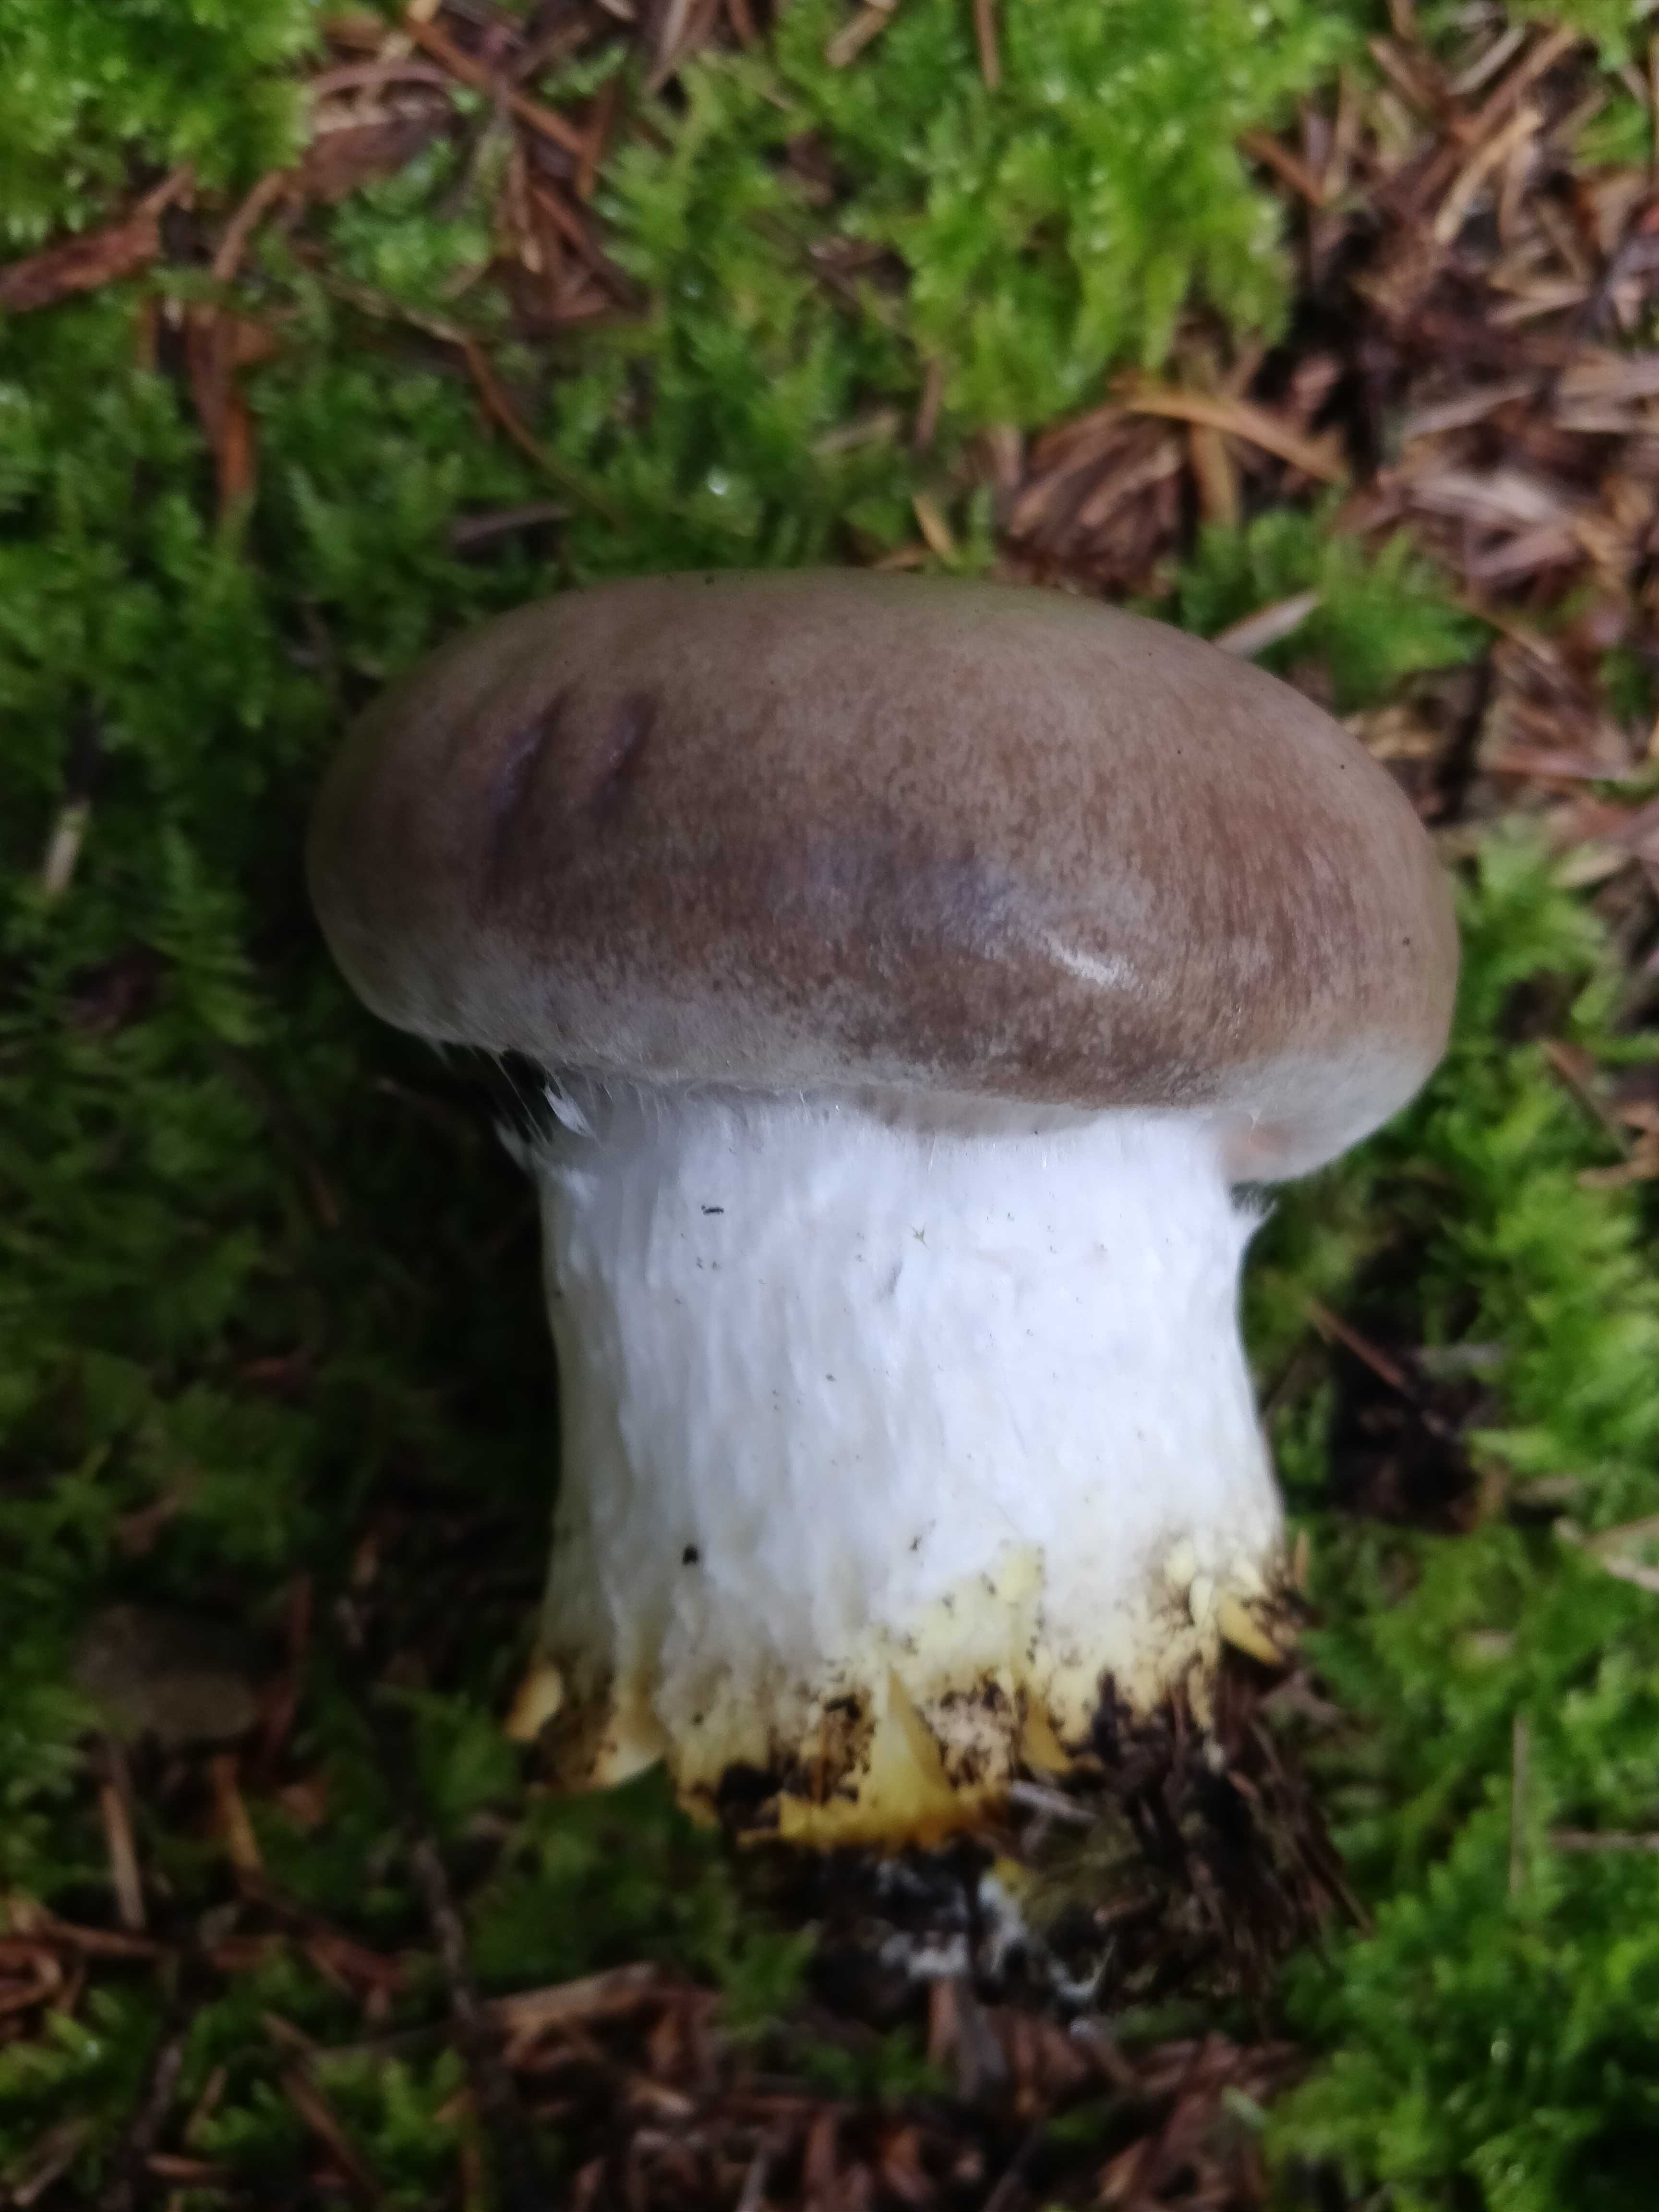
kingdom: Fungi
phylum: Basidiomycota
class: Agaricomycetes
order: Boletales
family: Gomphidiaceae
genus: Gomphidius
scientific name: Gomphidius glutinosus
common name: grå slimslør
